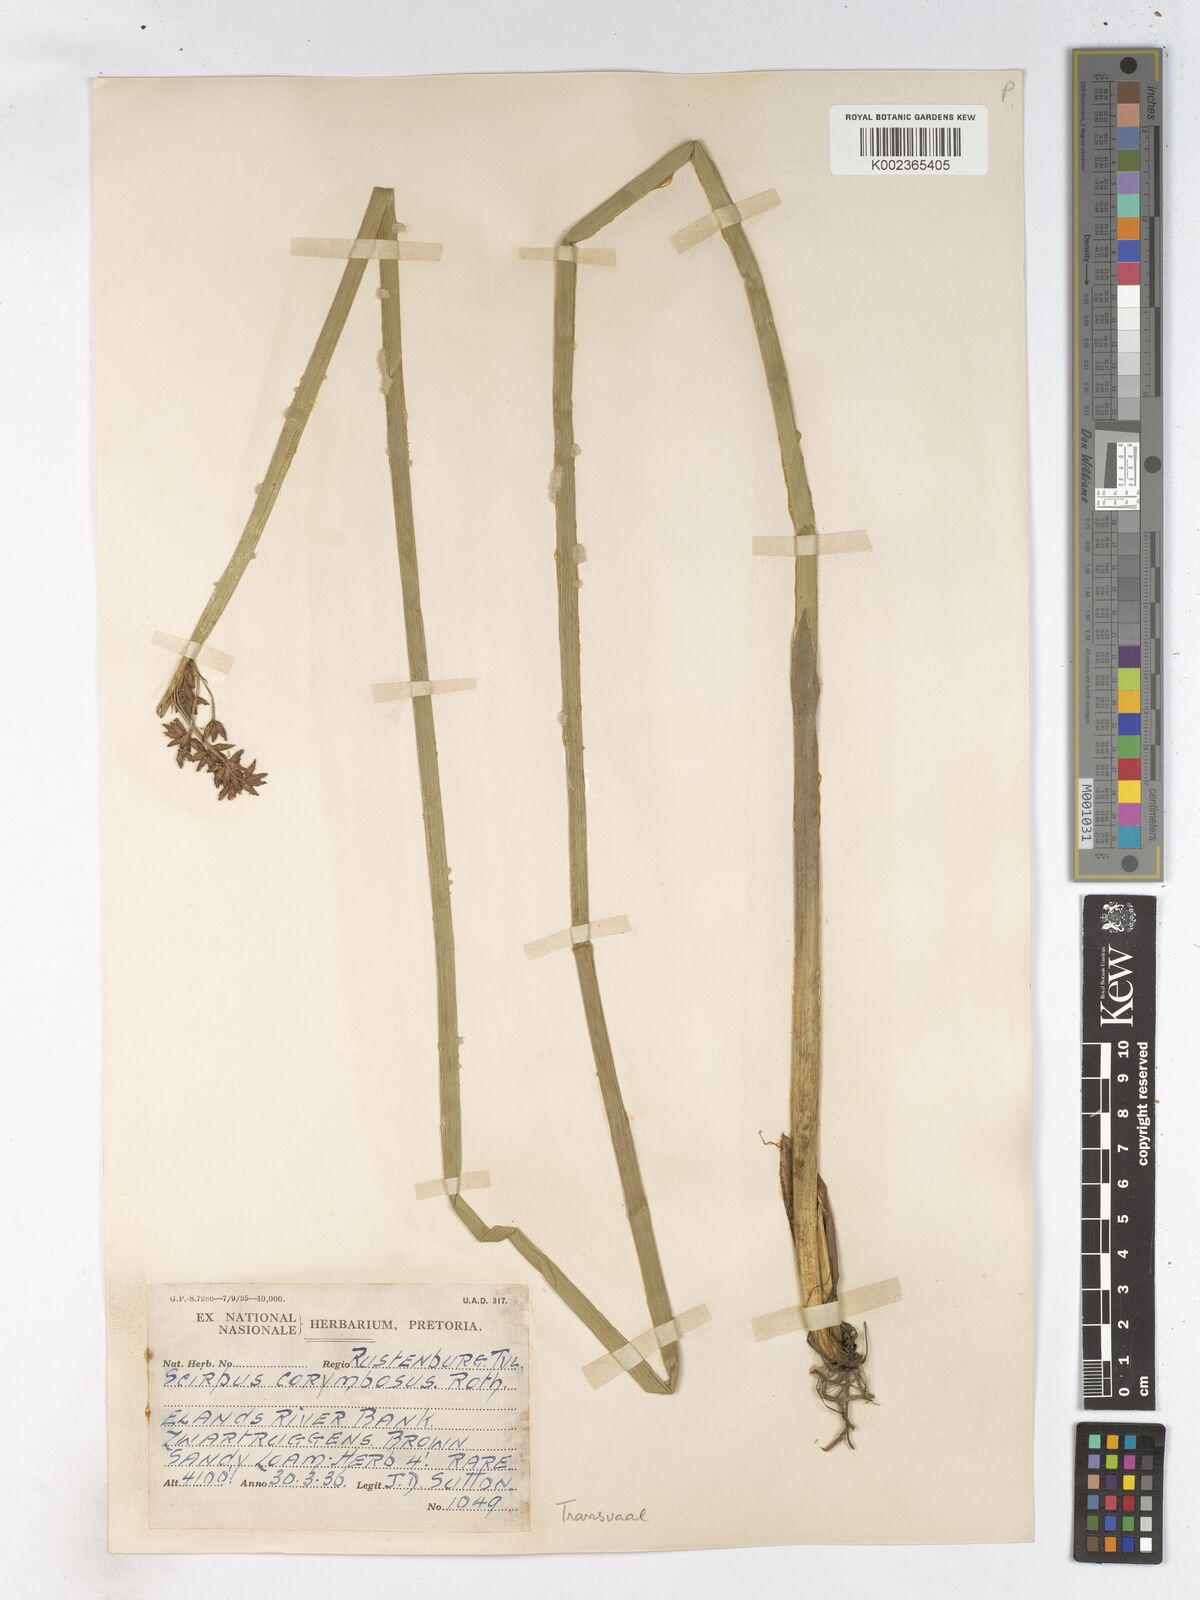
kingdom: Plantae
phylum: Tracheophyta
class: Liliopsida
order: Poales
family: Cyperaceae
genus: Schoenoplectiella
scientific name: Schoenoplectiella brachyceras
